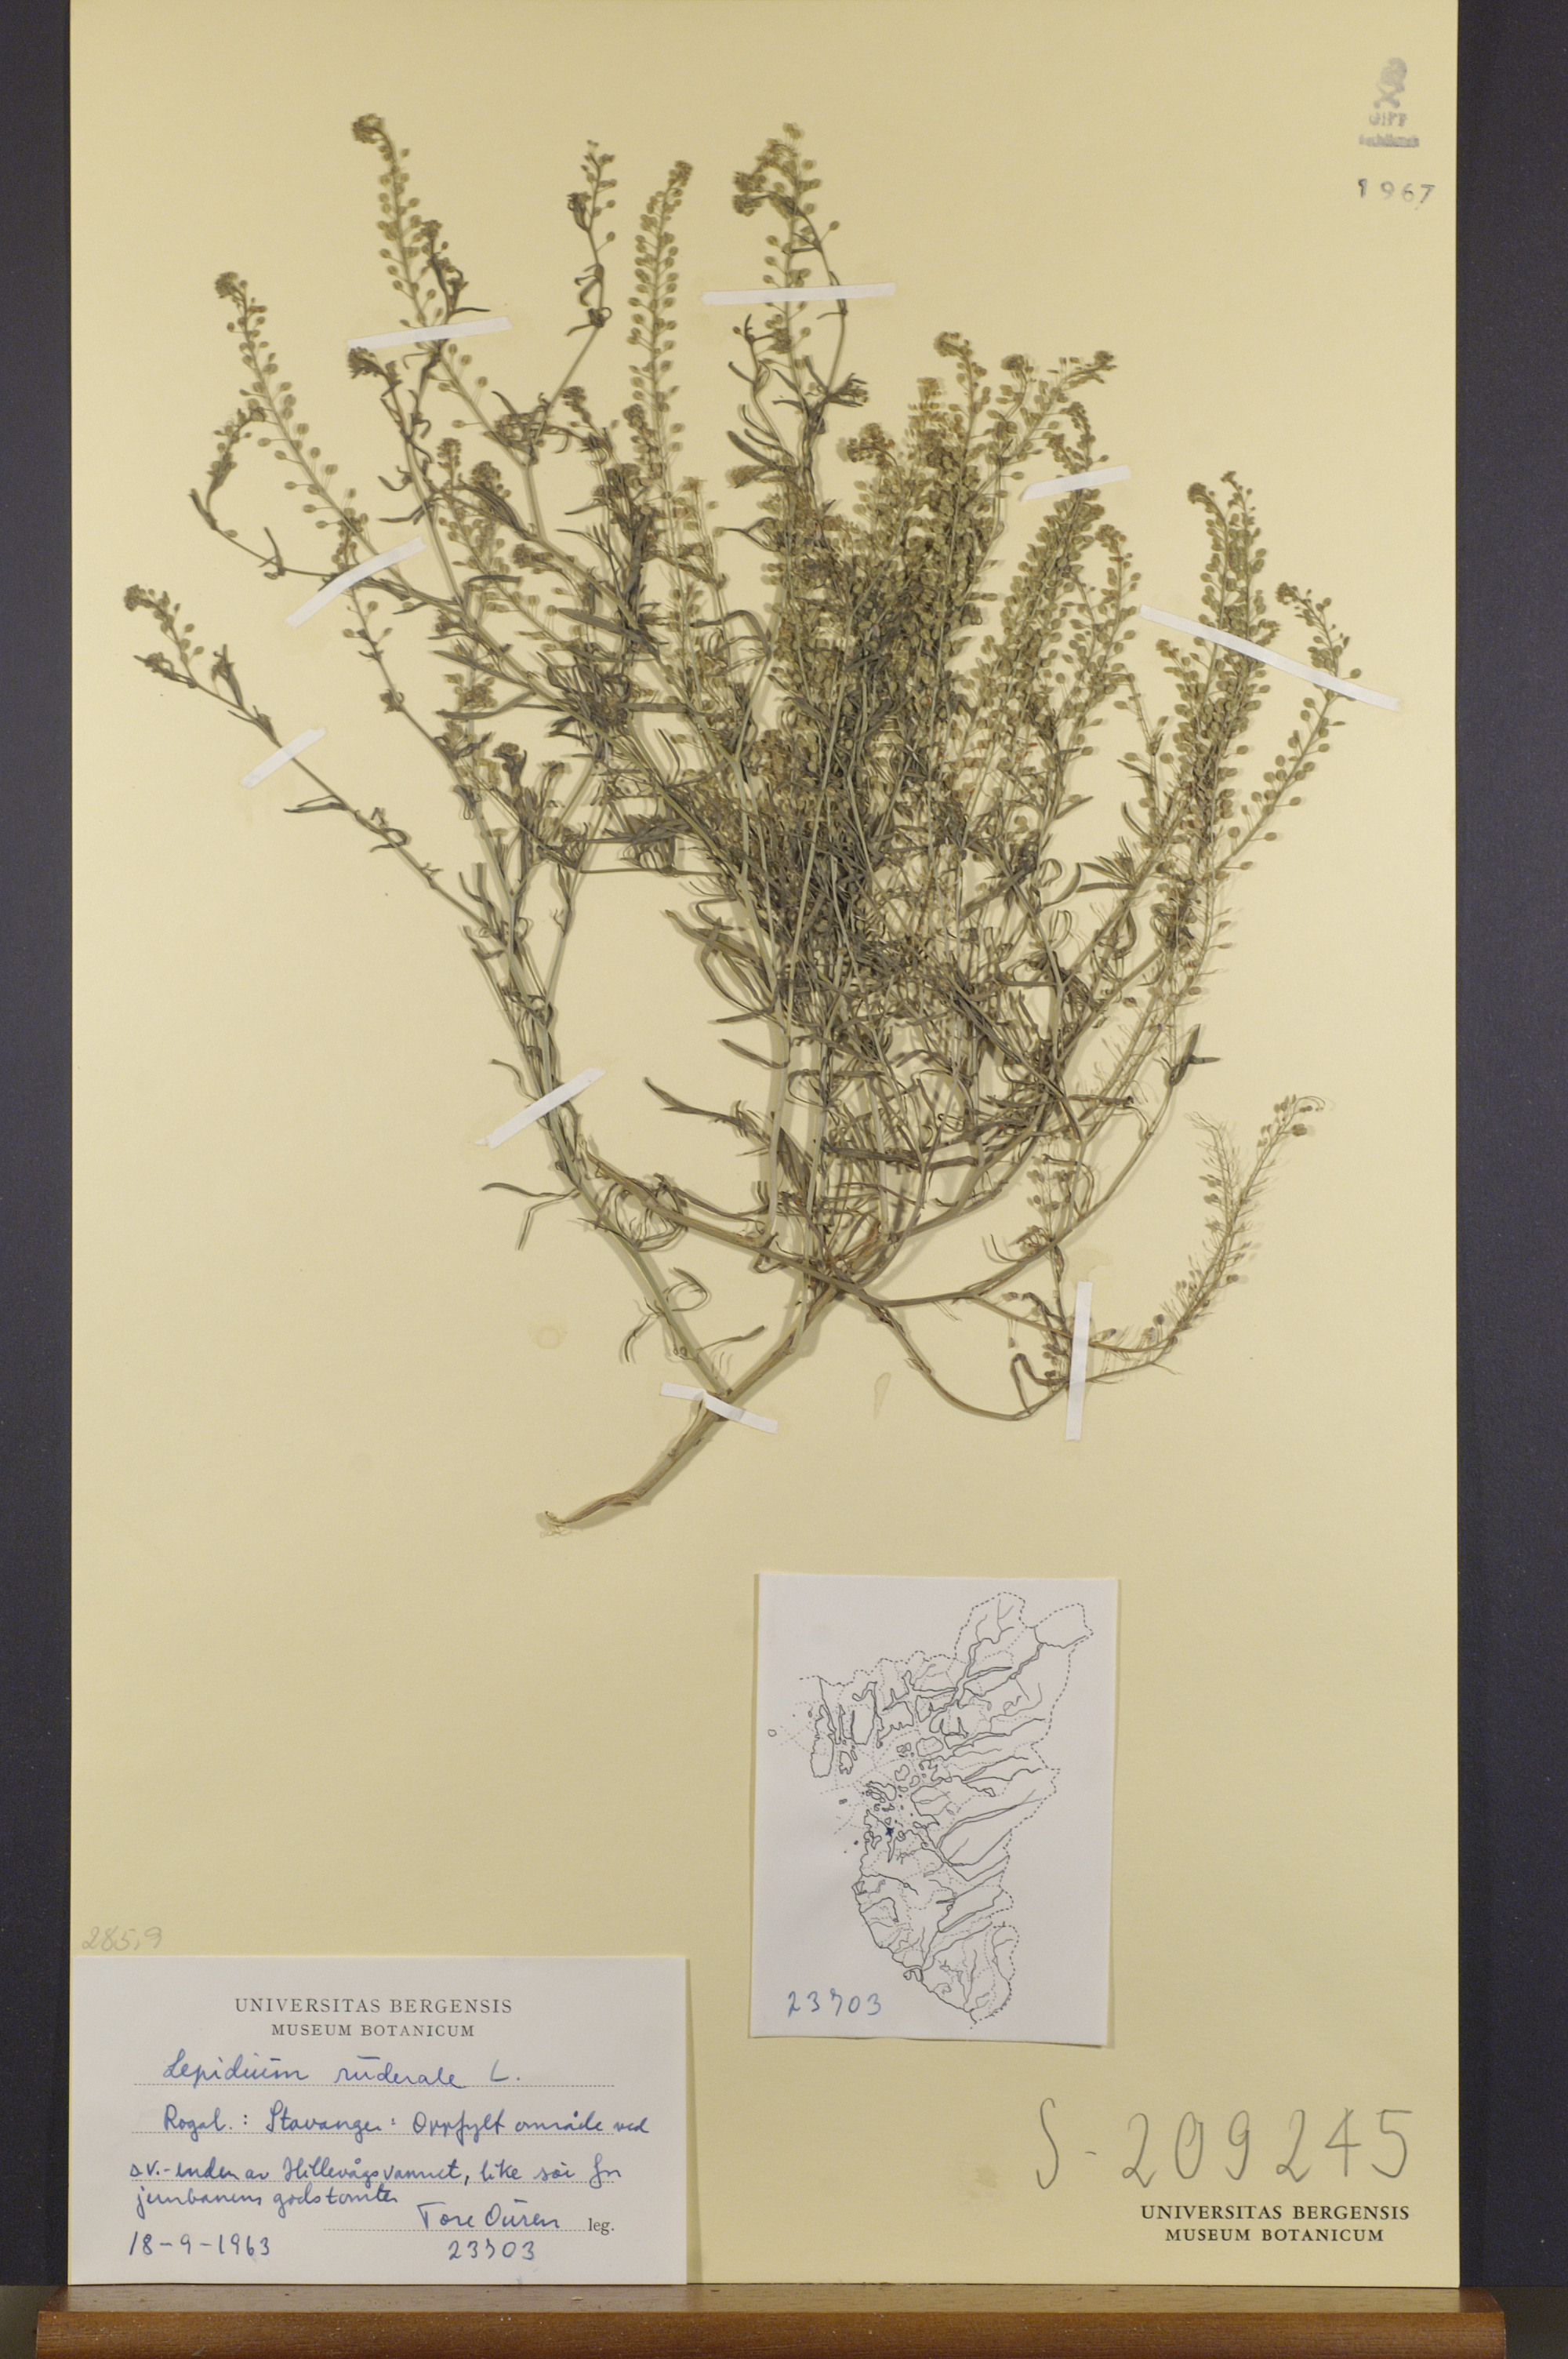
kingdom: Plantae
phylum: Tracheophyta
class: Magnoliopsida
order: Brassicales
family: Brassicaceae
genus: Lepidium
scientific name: Lepidium ruderale
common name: Narrow-leaved pepperwort
